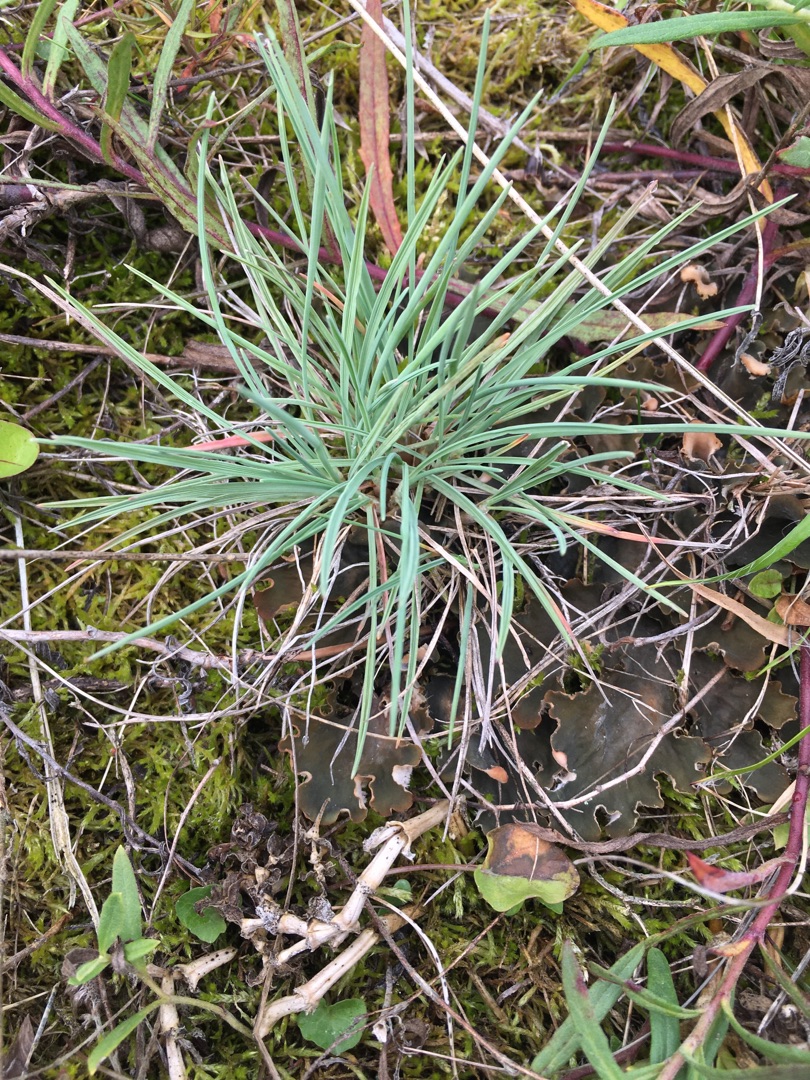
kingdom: Plantae
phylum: Tracheophyta
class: Liliopsida
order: Poales
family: Poaceae
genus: Koeleria
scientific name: Koeleria glauca
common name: Klit-kambunke
